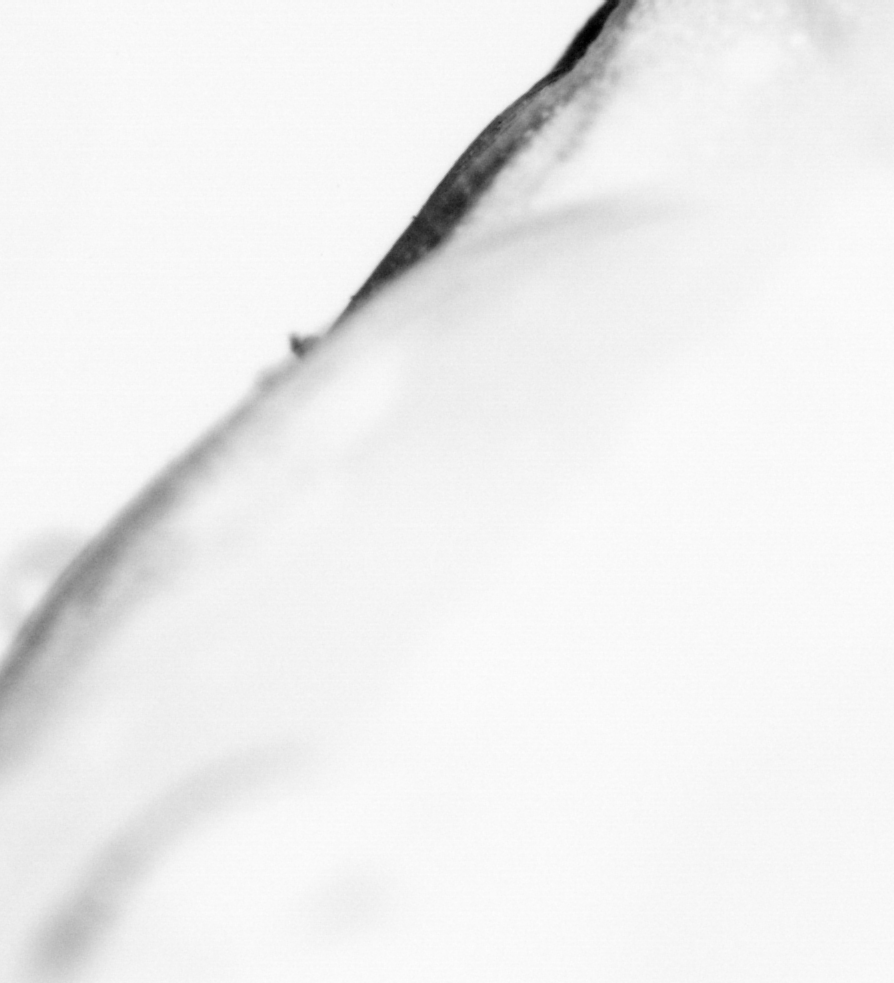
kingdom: Animalia
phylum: Chordata
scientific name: Chordata
